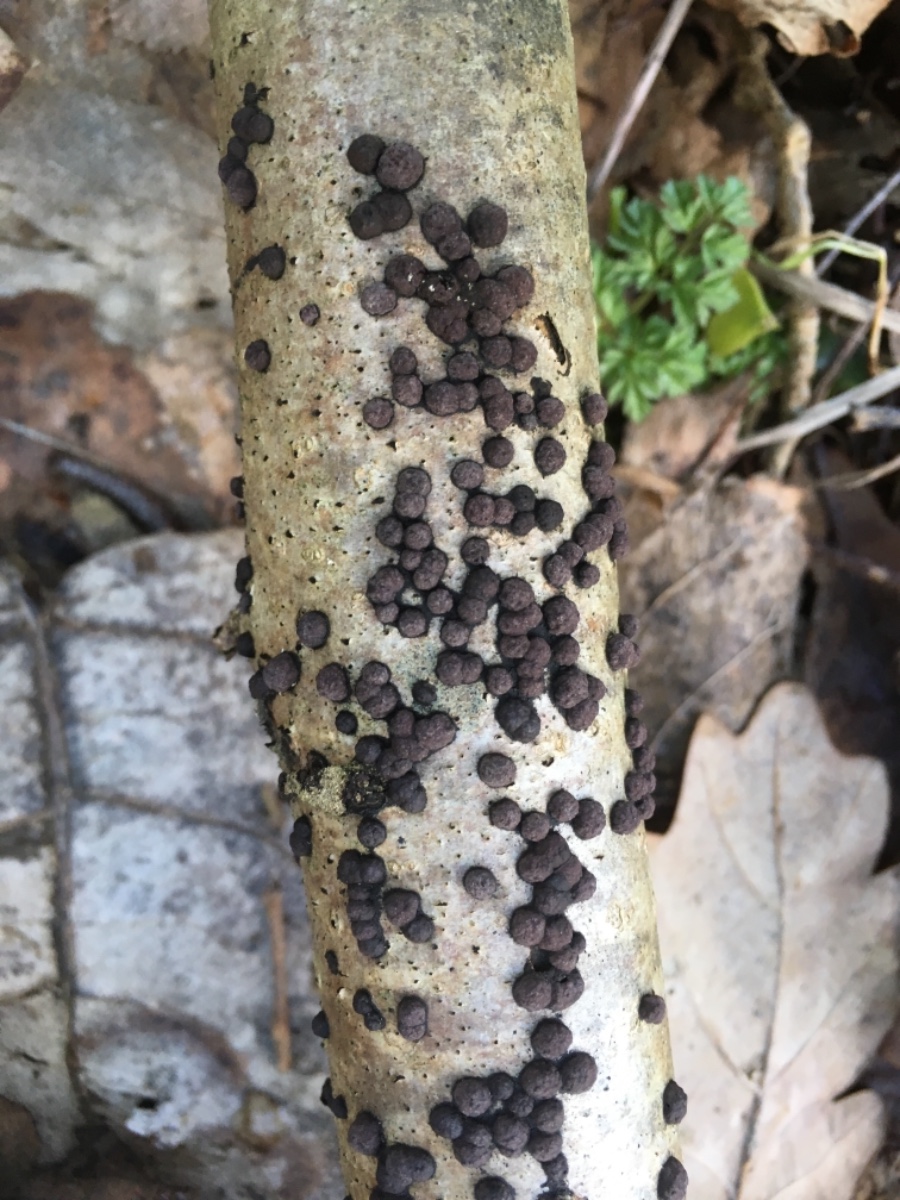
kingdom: Fungi
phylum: Ascomycota
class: Sordariomycetes
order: Xylariales
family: Hypoxylaceae
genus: Hypoxylon
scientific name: Hypoxylon fuscum
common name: kegleformet kulbær
